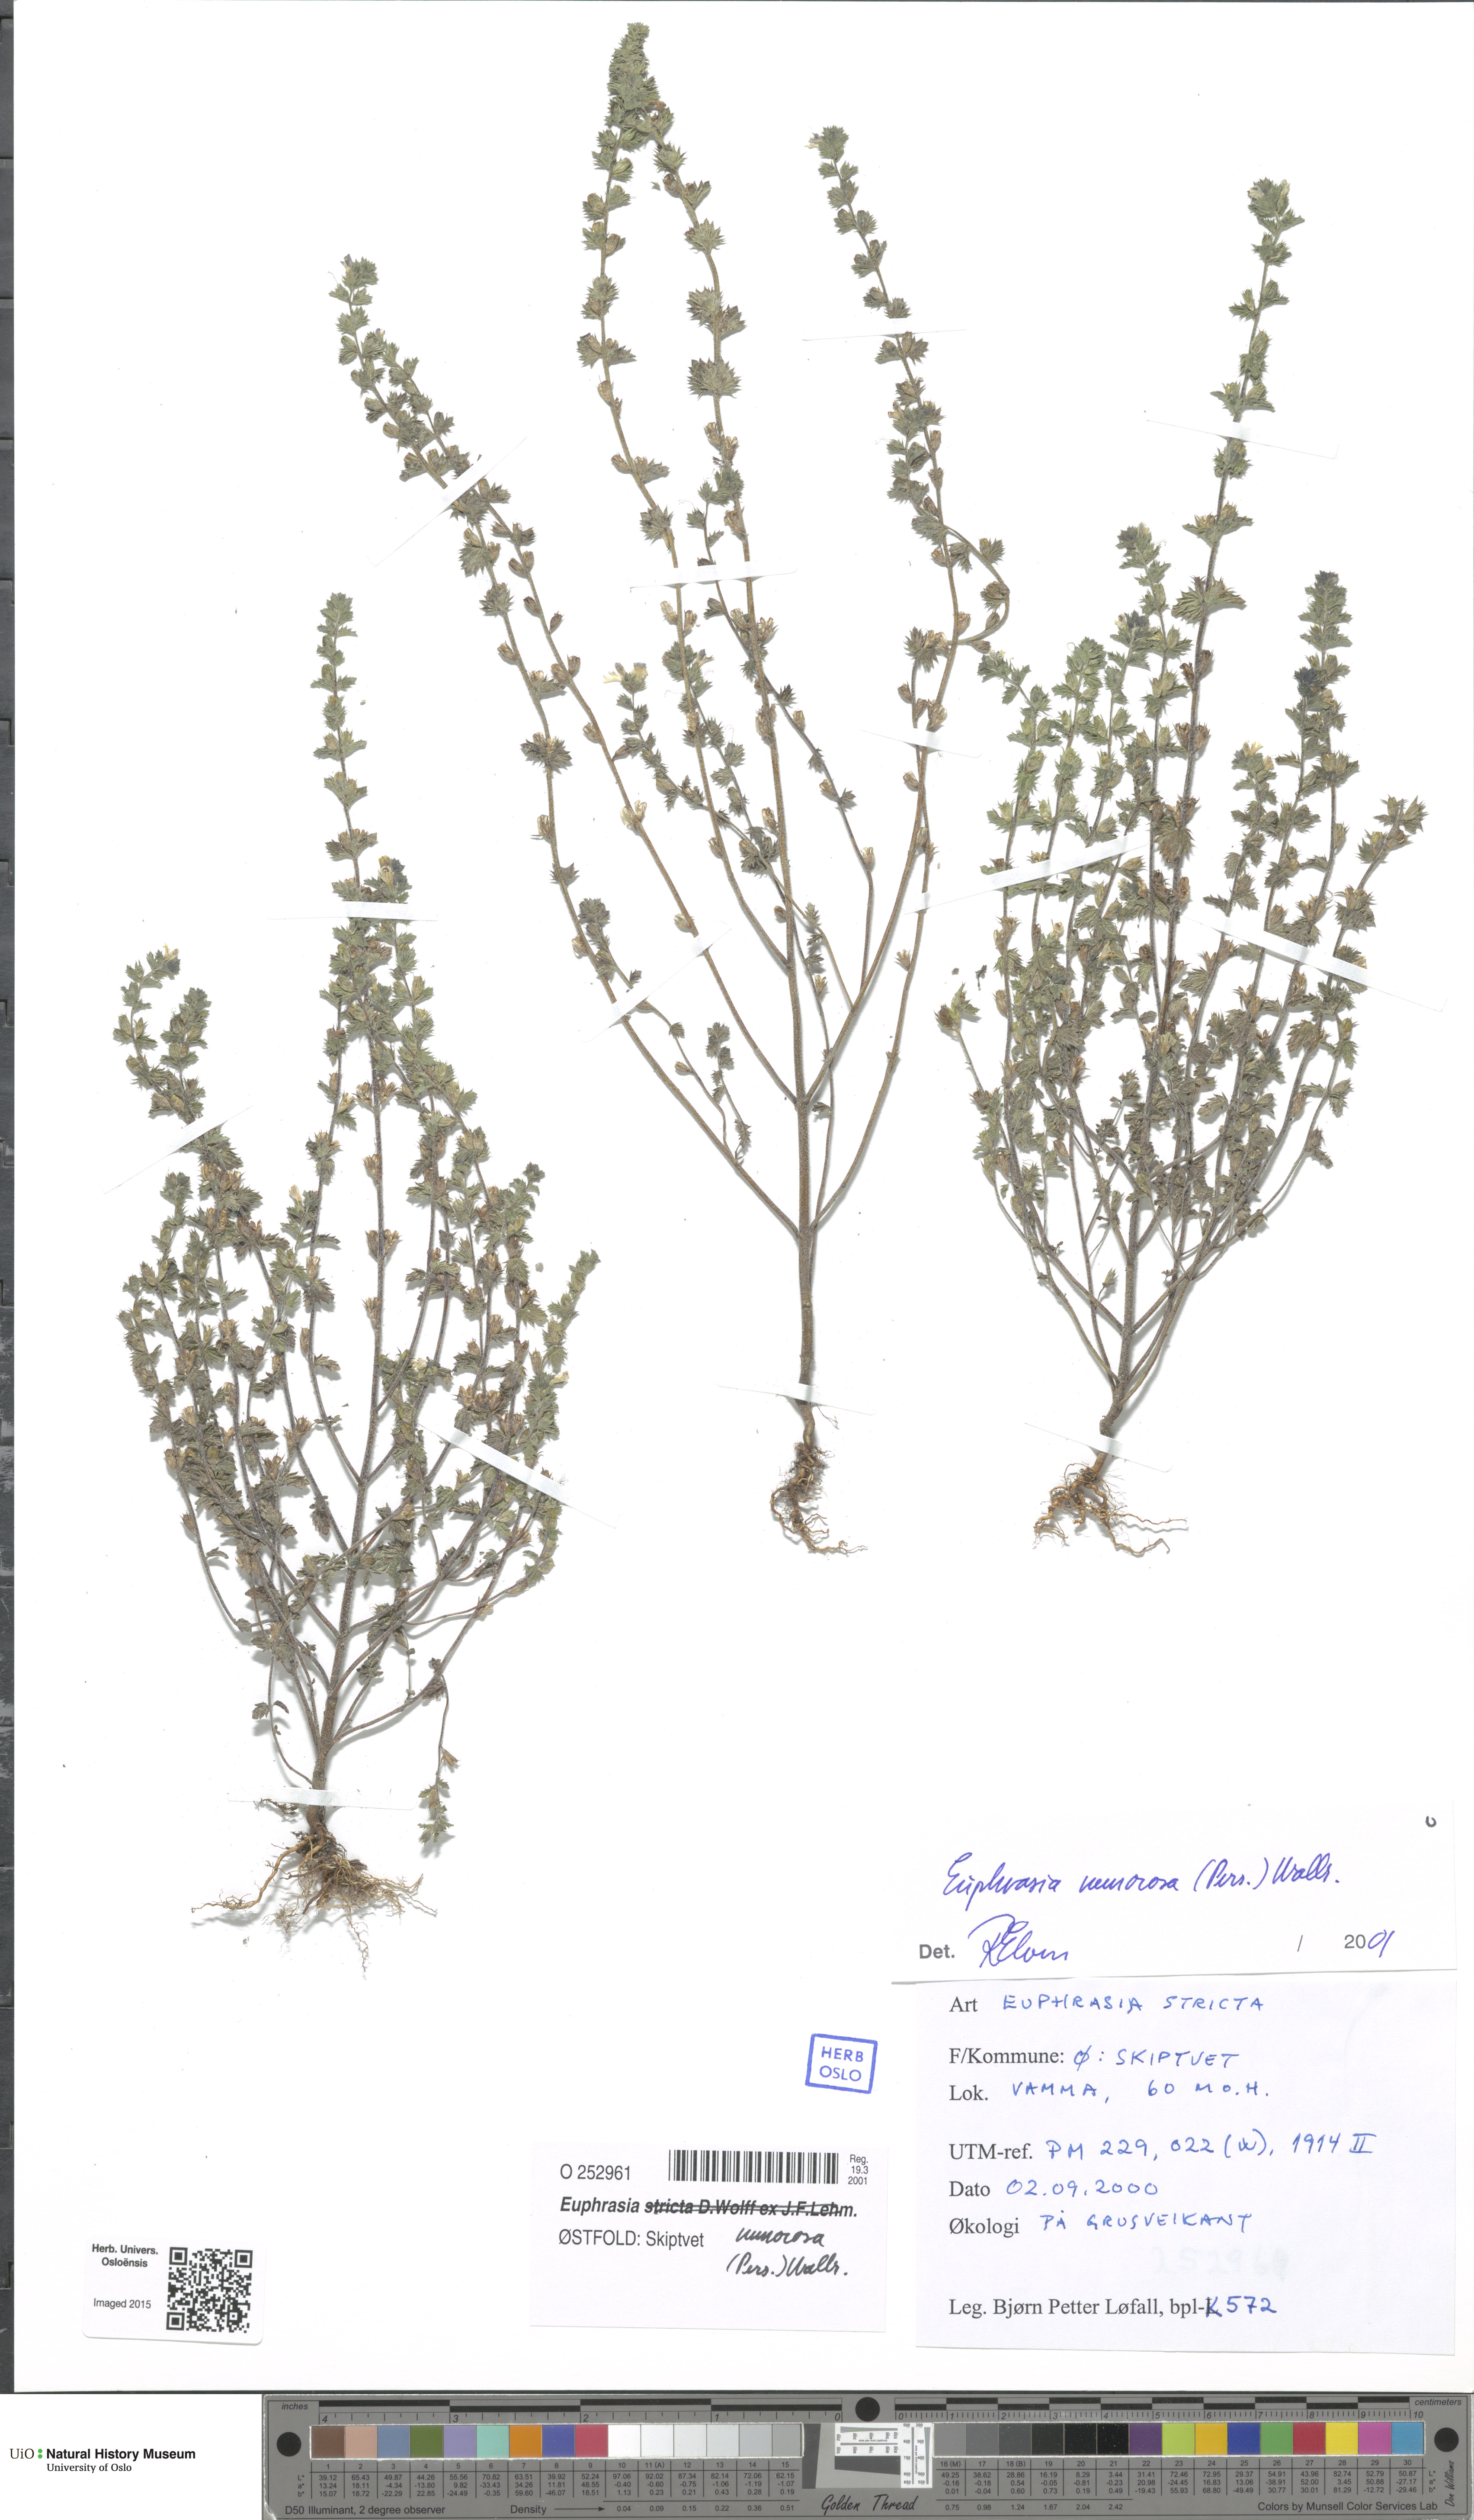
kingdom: Plantae
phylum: Tracheophyta
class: Magnoliopsida
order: Lamiales
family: Orobanchaceae
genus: Euphrasia
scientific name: Euphrasia nemorosa
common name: Common eyebright
